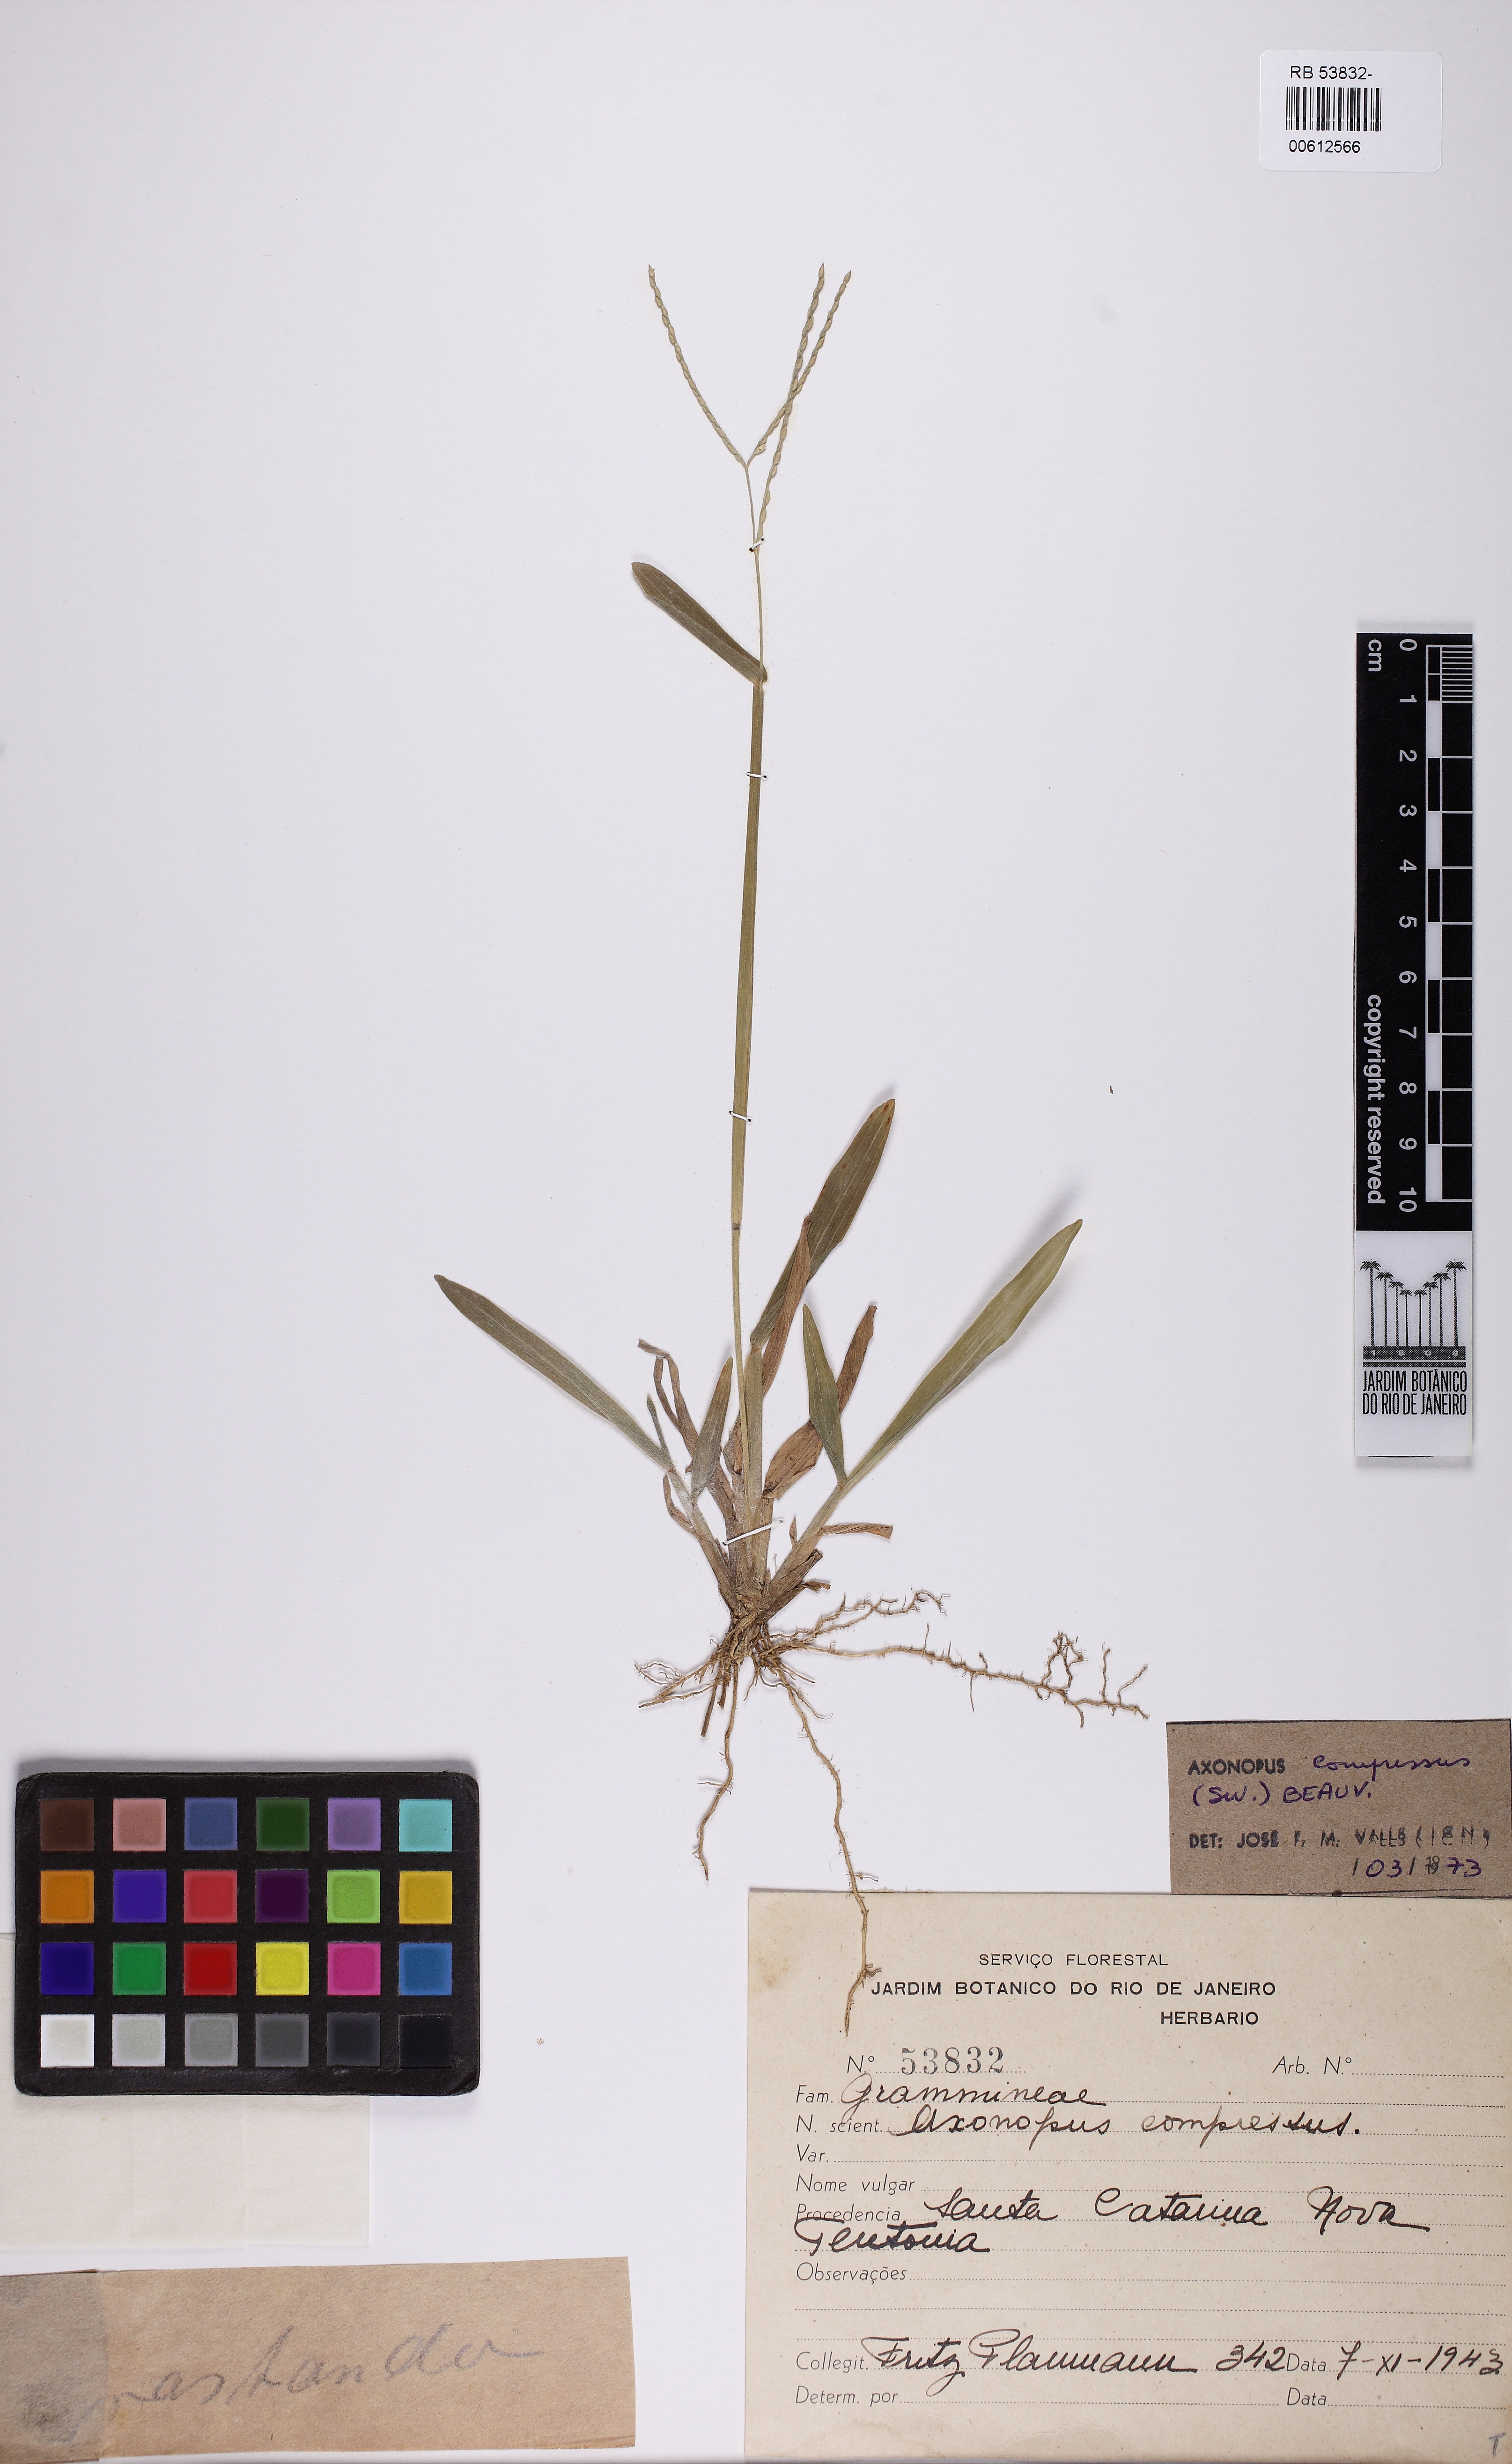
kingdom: Plantae
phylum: Tracheophyta
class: Liliopsida
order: Poales
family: Poaceae
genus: Axonopus
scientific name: Axonopus compressus
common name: American carpet grass
